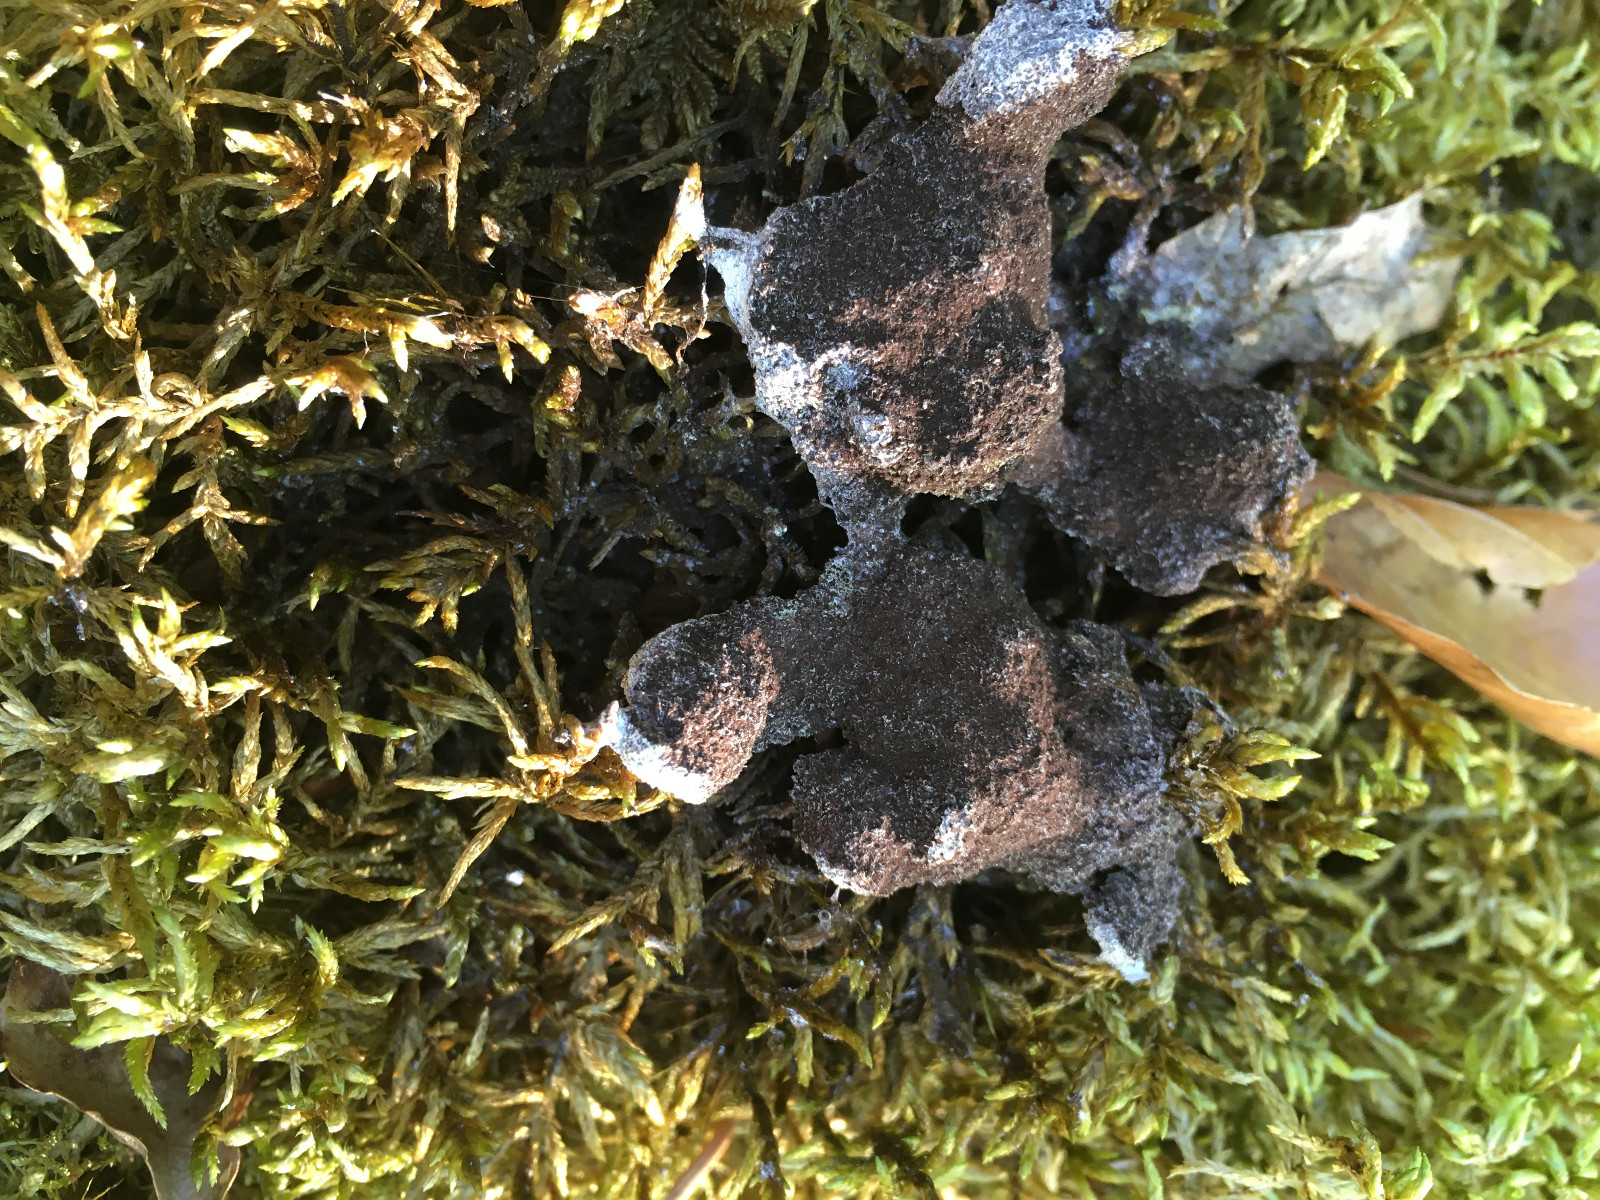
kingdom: Protozoa
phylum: Mycetozoa
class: Myxomycetes
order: Physarales
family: Physaraceae
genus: Fuligo
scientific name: Fuligo
